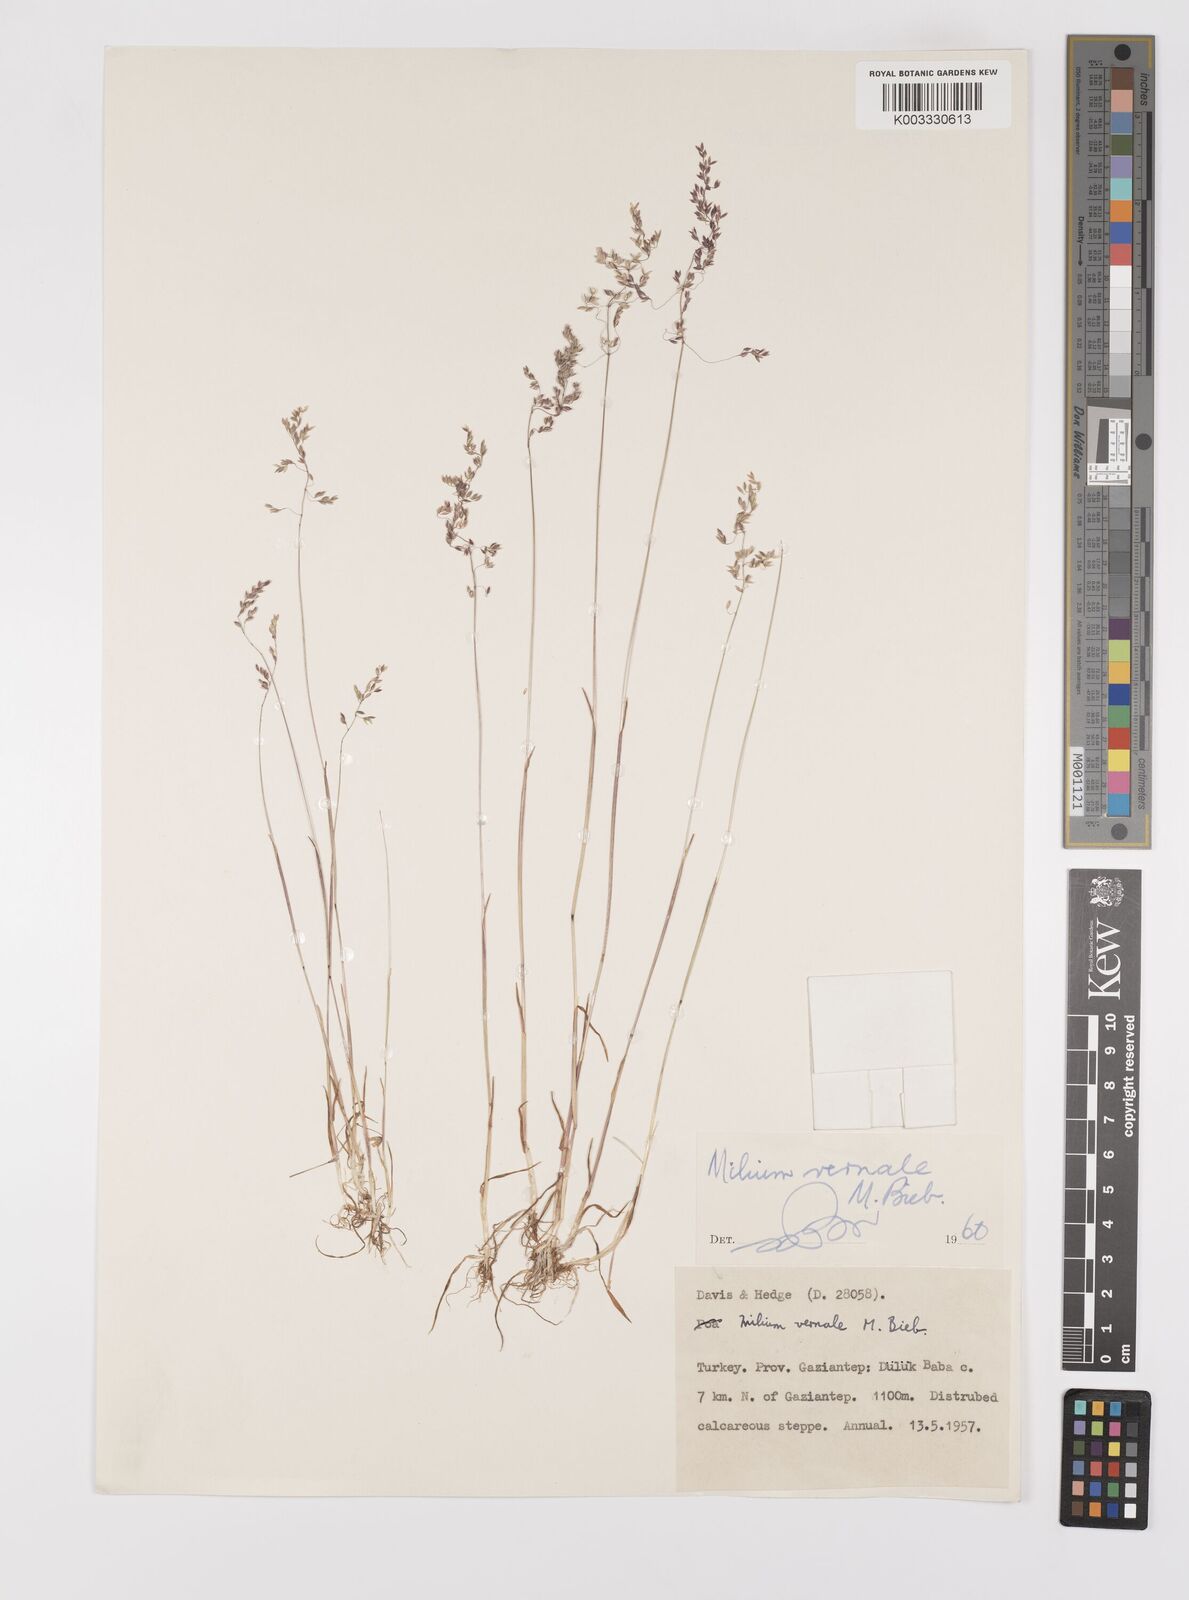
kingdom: Plantae
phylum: Tracheophyta
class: Liliopsida
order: Poales
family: Poaceae
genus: Milium
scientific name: Milium vernale
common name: Early millet
